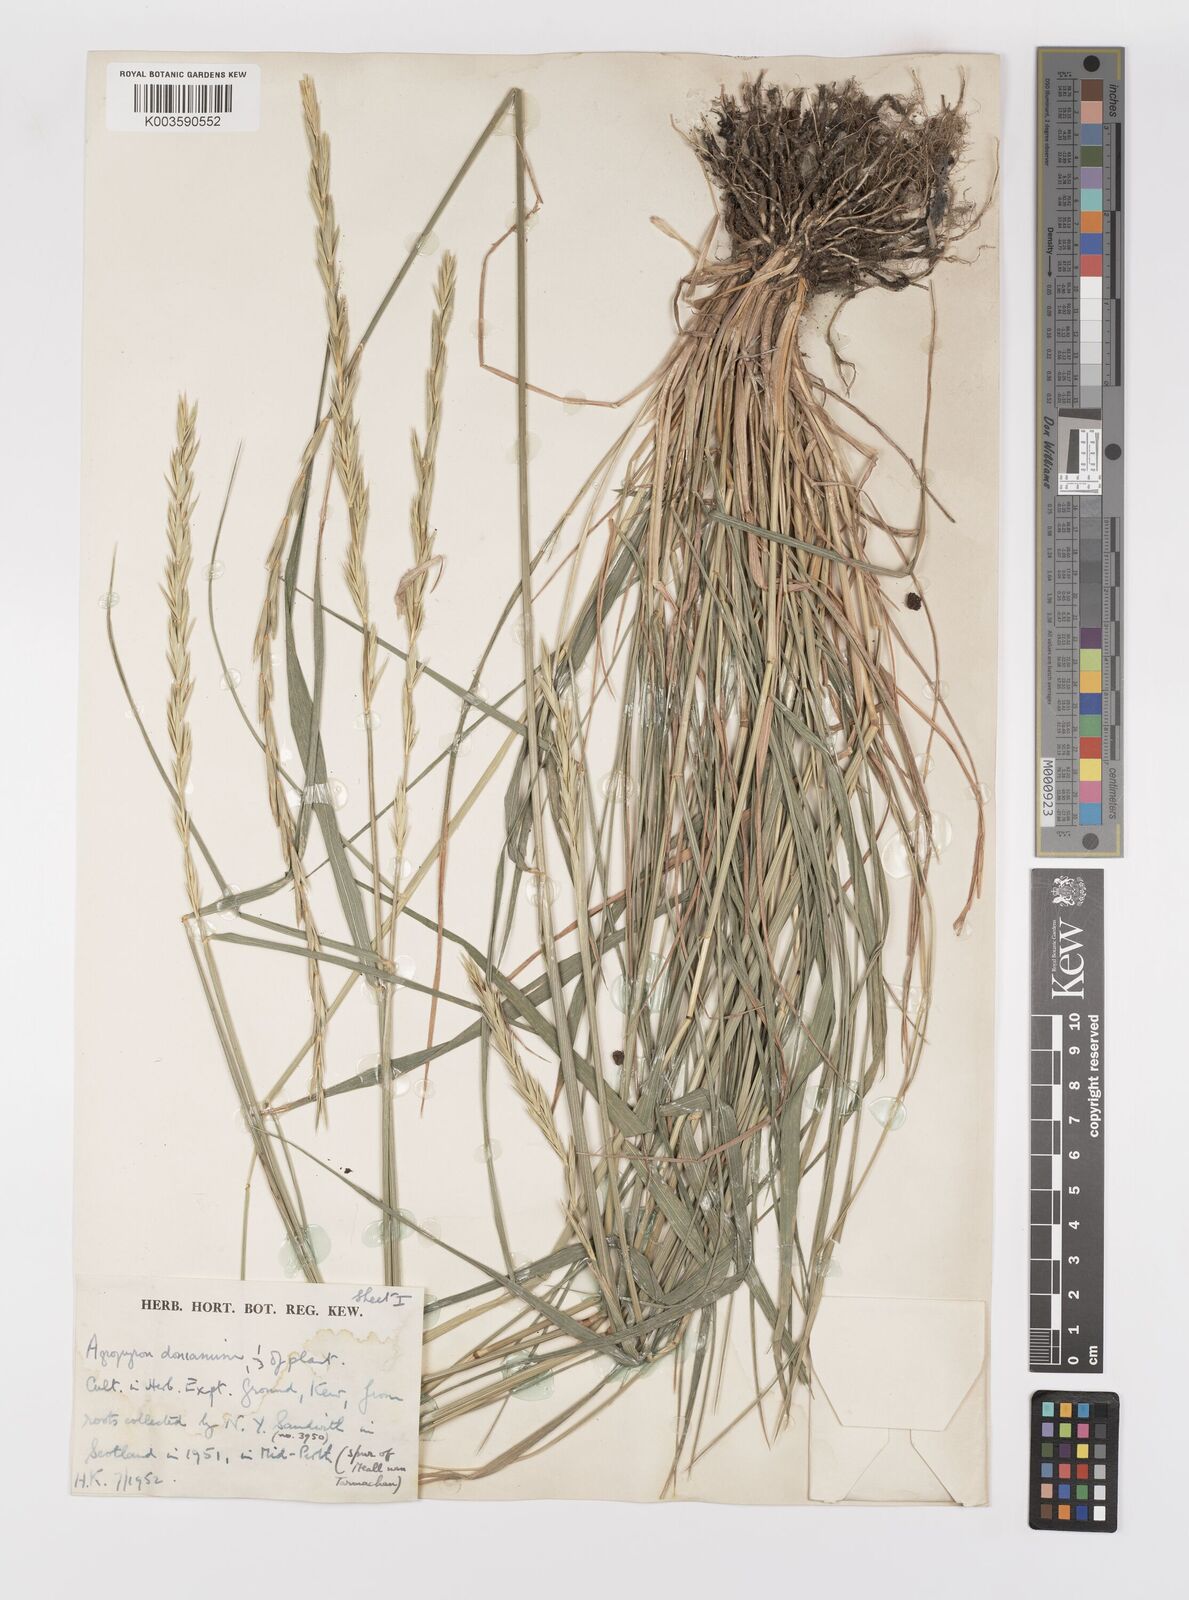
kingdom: Plantae
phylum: Tracheophyta
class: Liliopsida
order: Poales
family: Poaceae
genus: Elymus
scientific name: Elymus caninus
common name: Bearded couch
